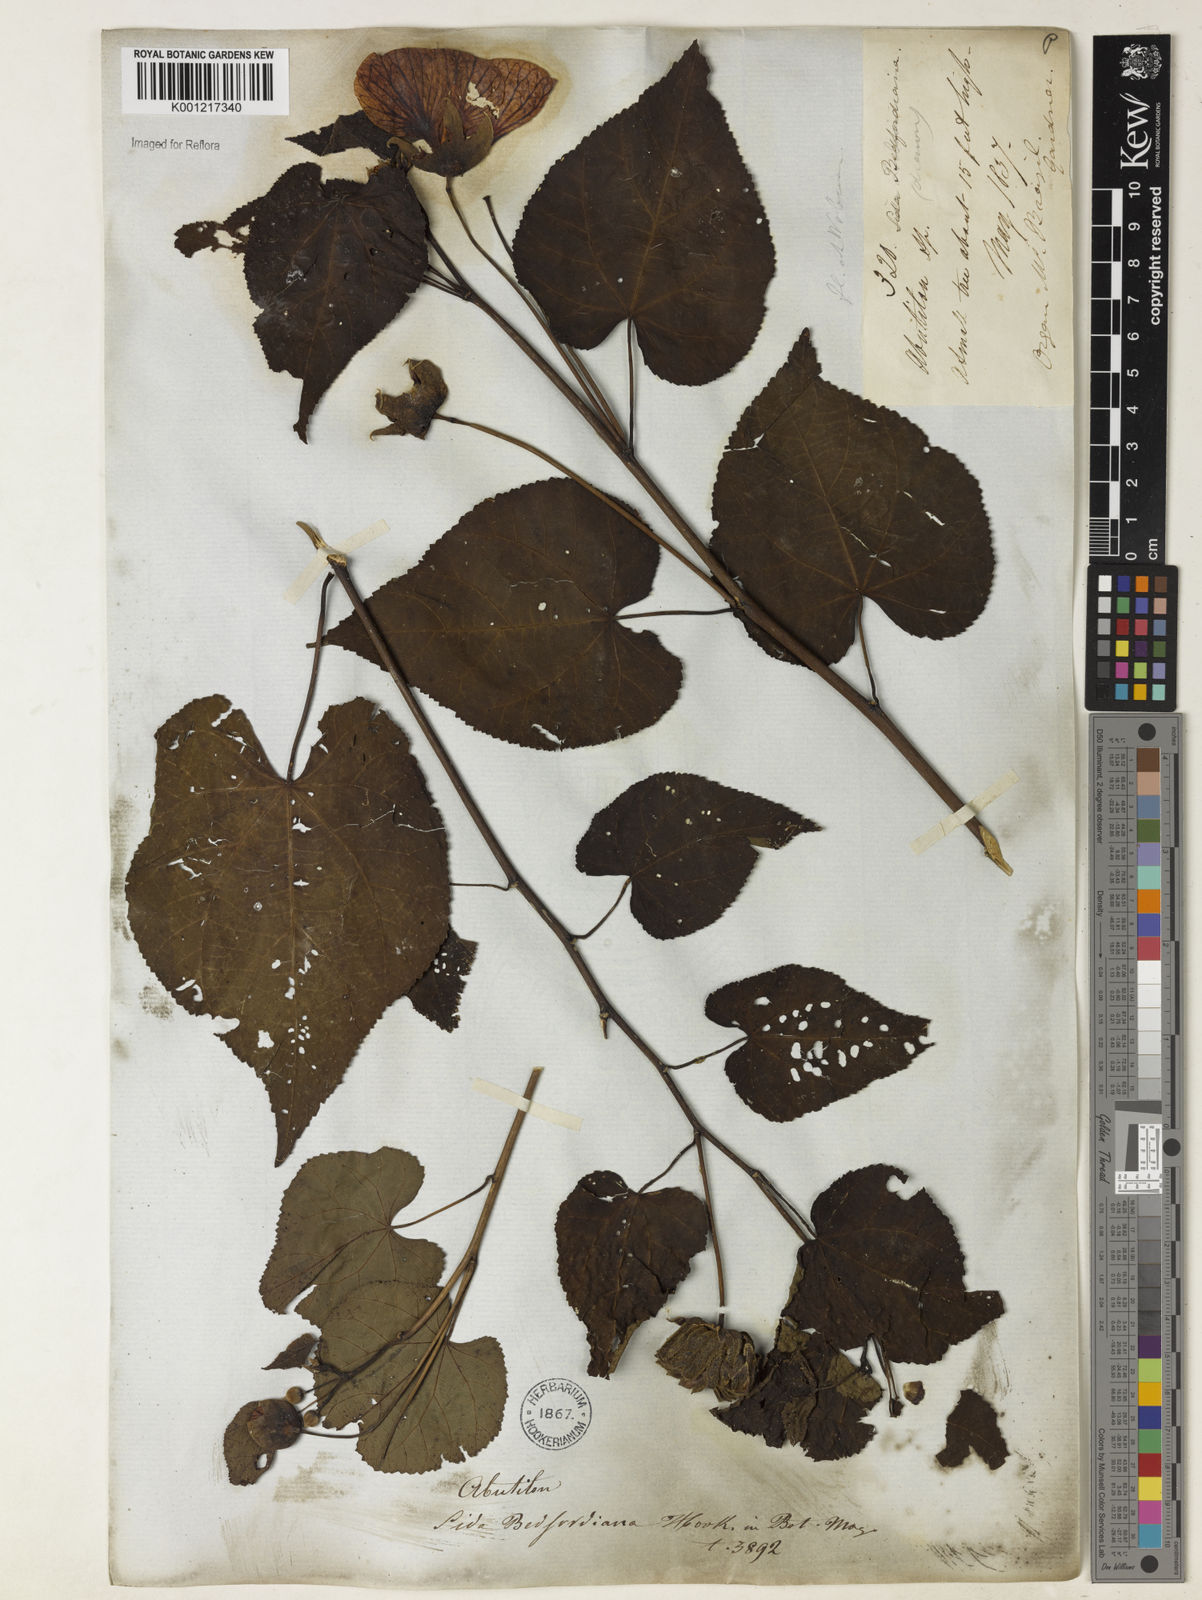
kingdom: Plantae
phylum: Tracheophyta
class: Magnoliopsida
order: Malvales
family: Malvaceae
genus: Callianthe
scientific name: Callianthe bedfordiana
